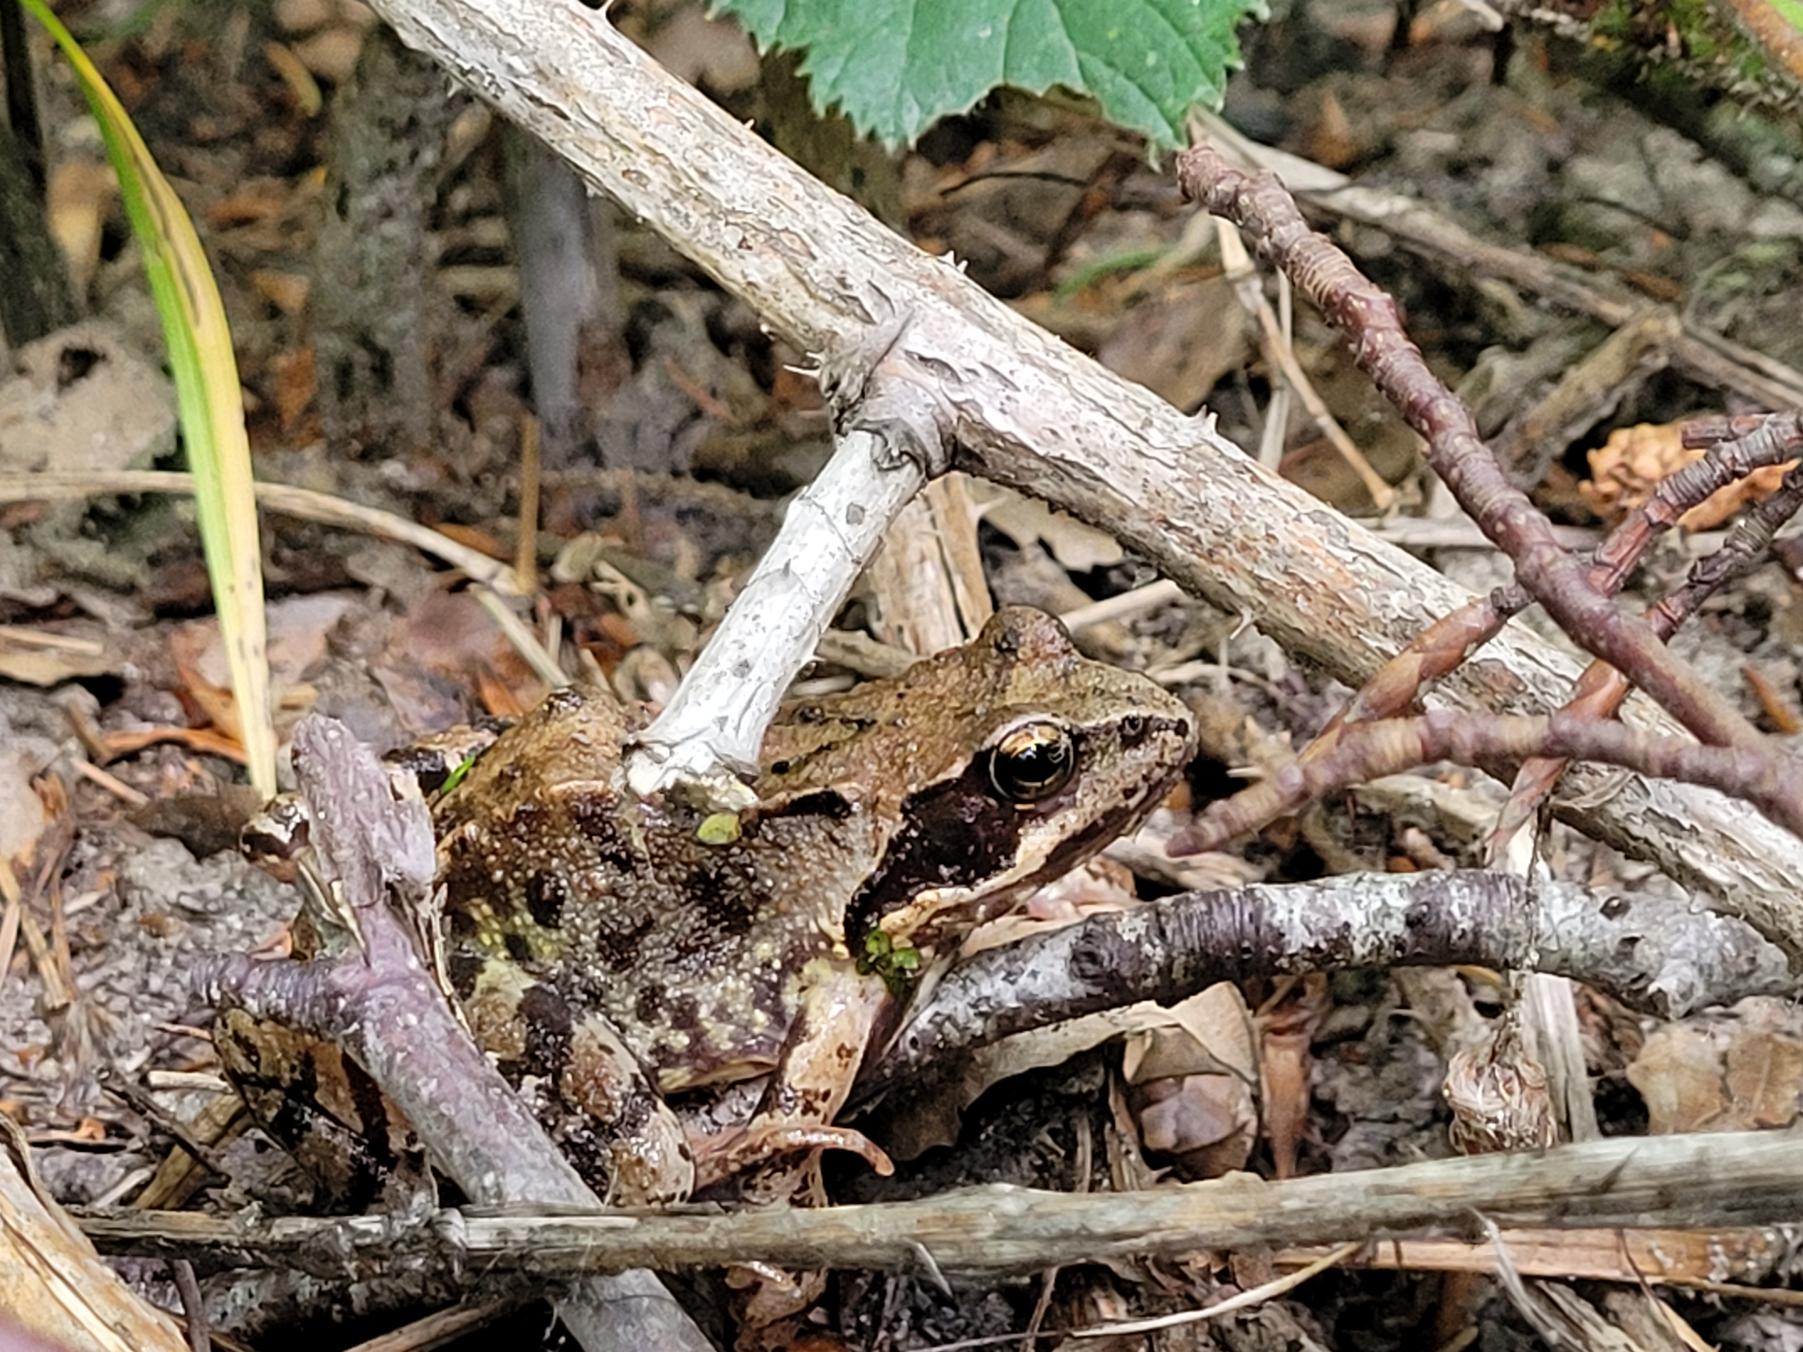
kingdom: Animalia
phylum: Chordata
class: Amphibia
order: Anura
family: Ranidae
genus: Rana
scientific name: Rana temporaria
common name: Butsnudet frø
